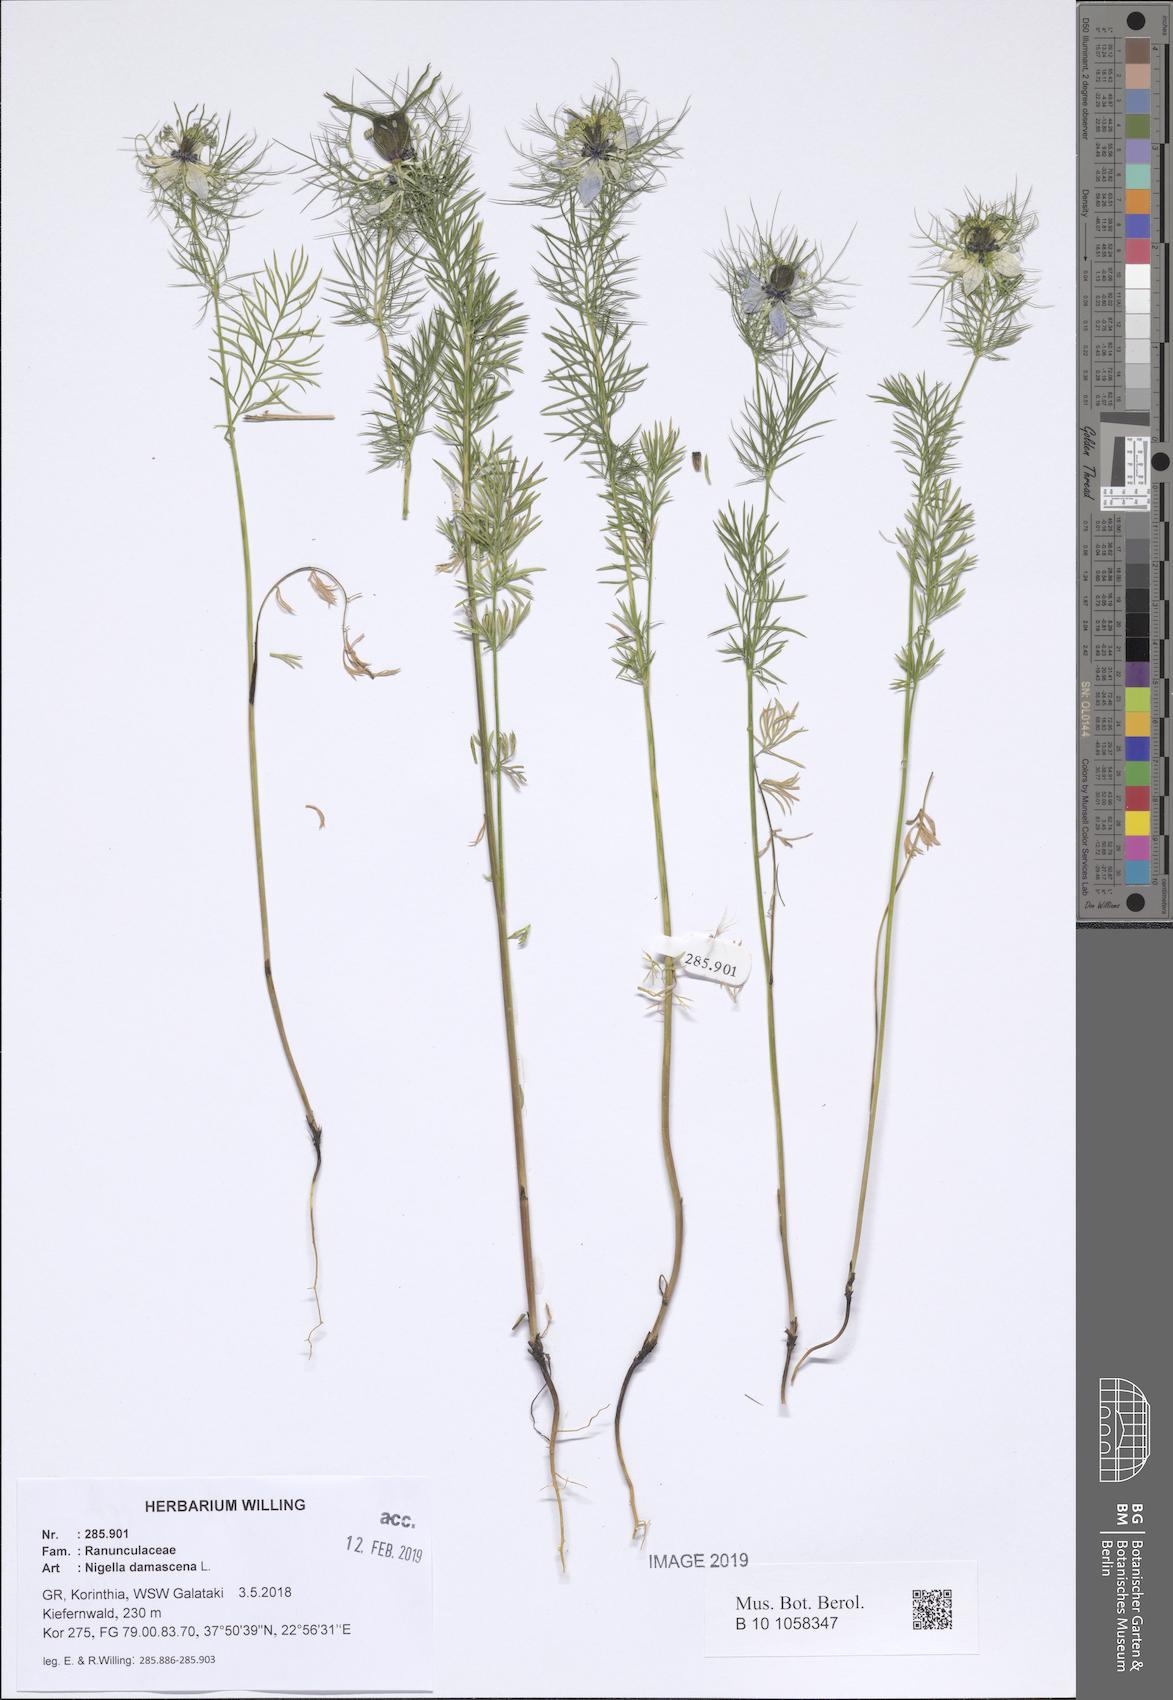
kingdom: Plantae
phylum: Tracheophyta
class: Magnoliopsida
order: Ranunculales
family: Ranunculaceae
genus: Nigella
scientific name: Nigella damascena
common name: Love-in-a-mist
